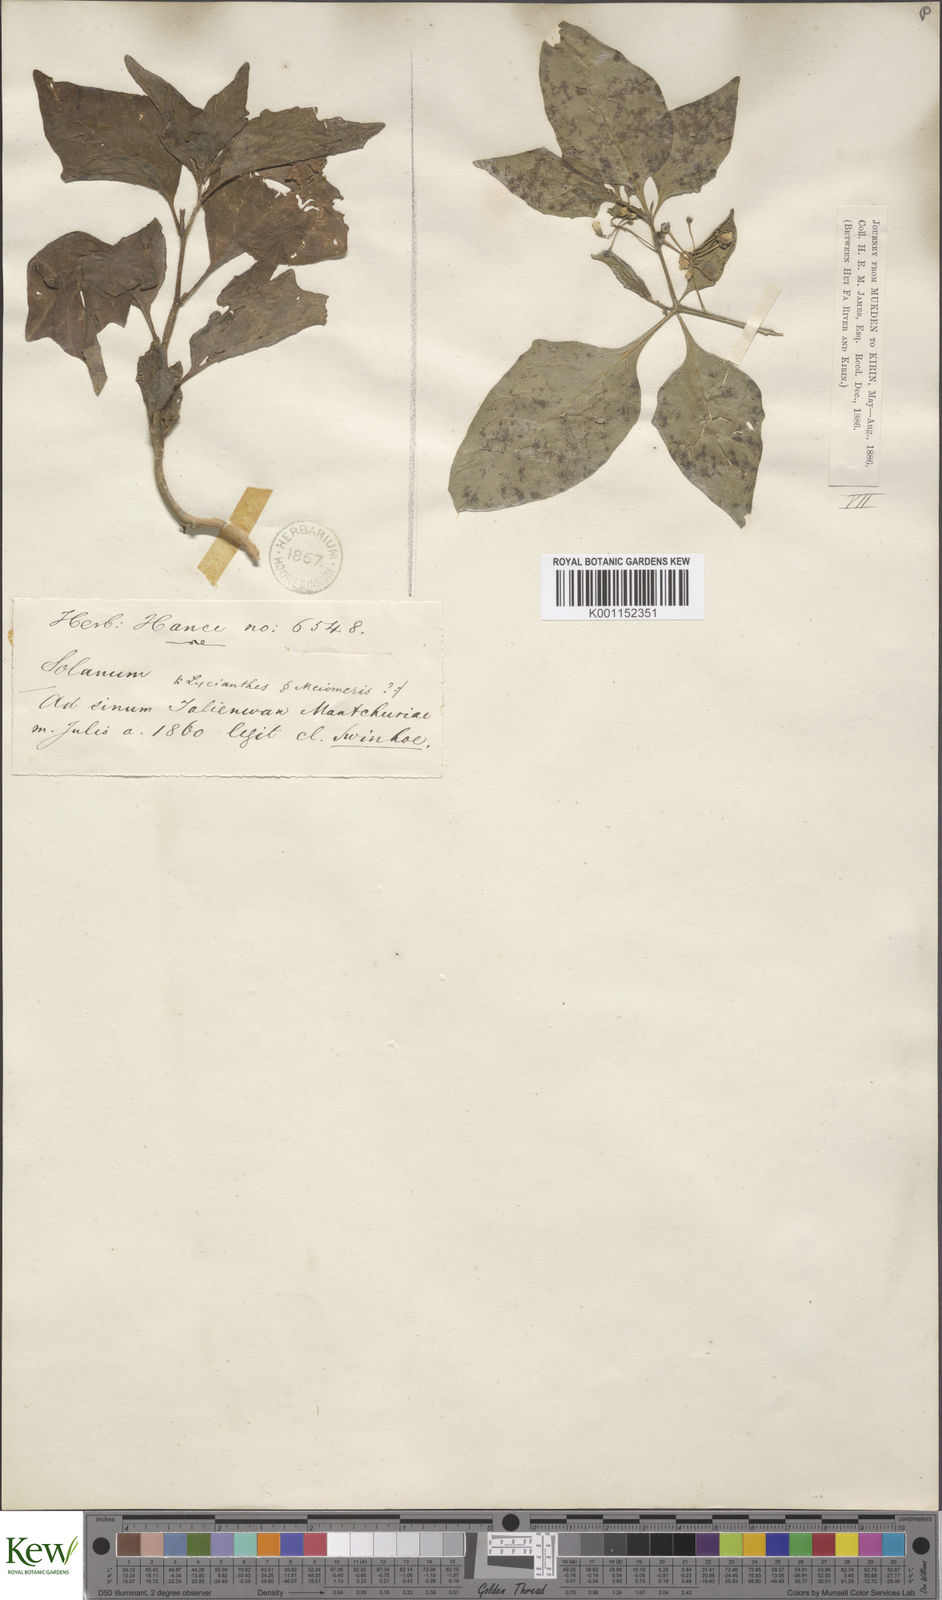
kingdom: Plantae
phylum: Tracheophyta
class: Magnoliopsida
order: Solanales
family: Solanaceae
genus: Solanum
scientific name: Solanum nigrum
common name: Black nightshade
